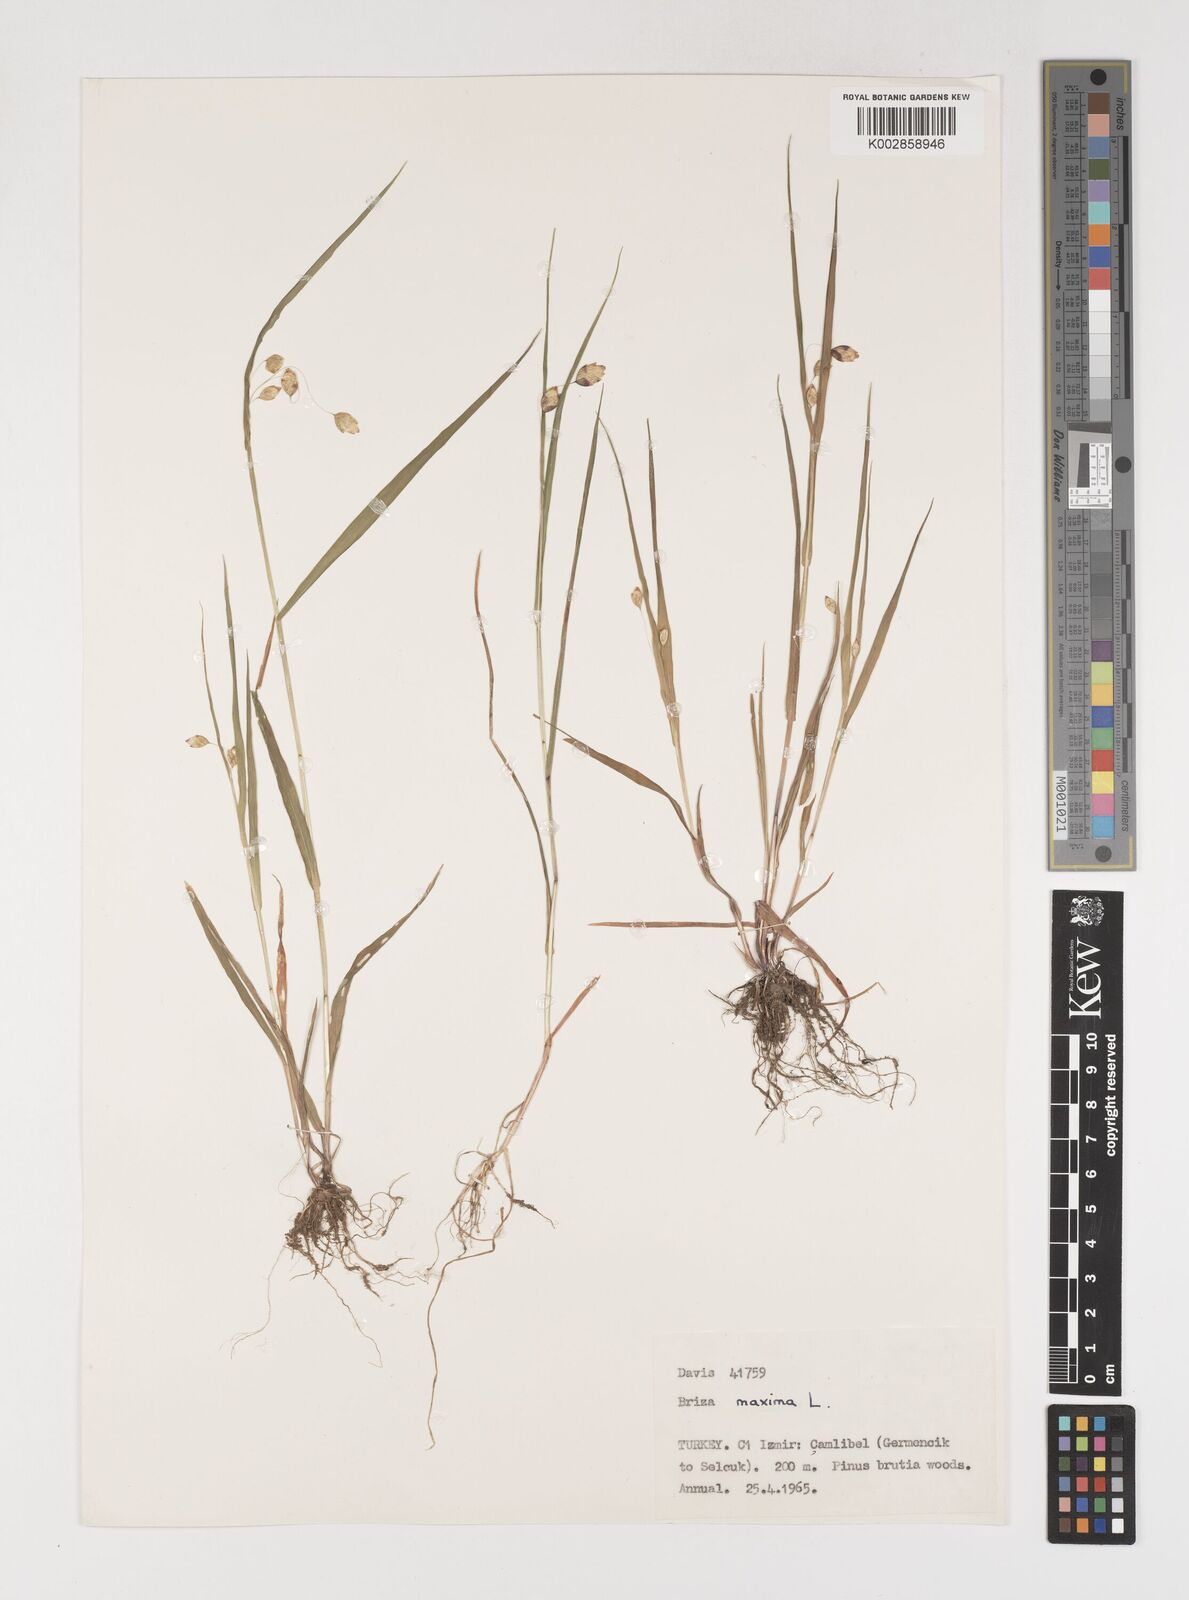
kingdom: Plantae
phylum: Tracheophyta
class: Liliopsida
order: Poales
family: Poaceae
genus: Briza
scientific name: Briza maxima
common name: Big quakinggrass
